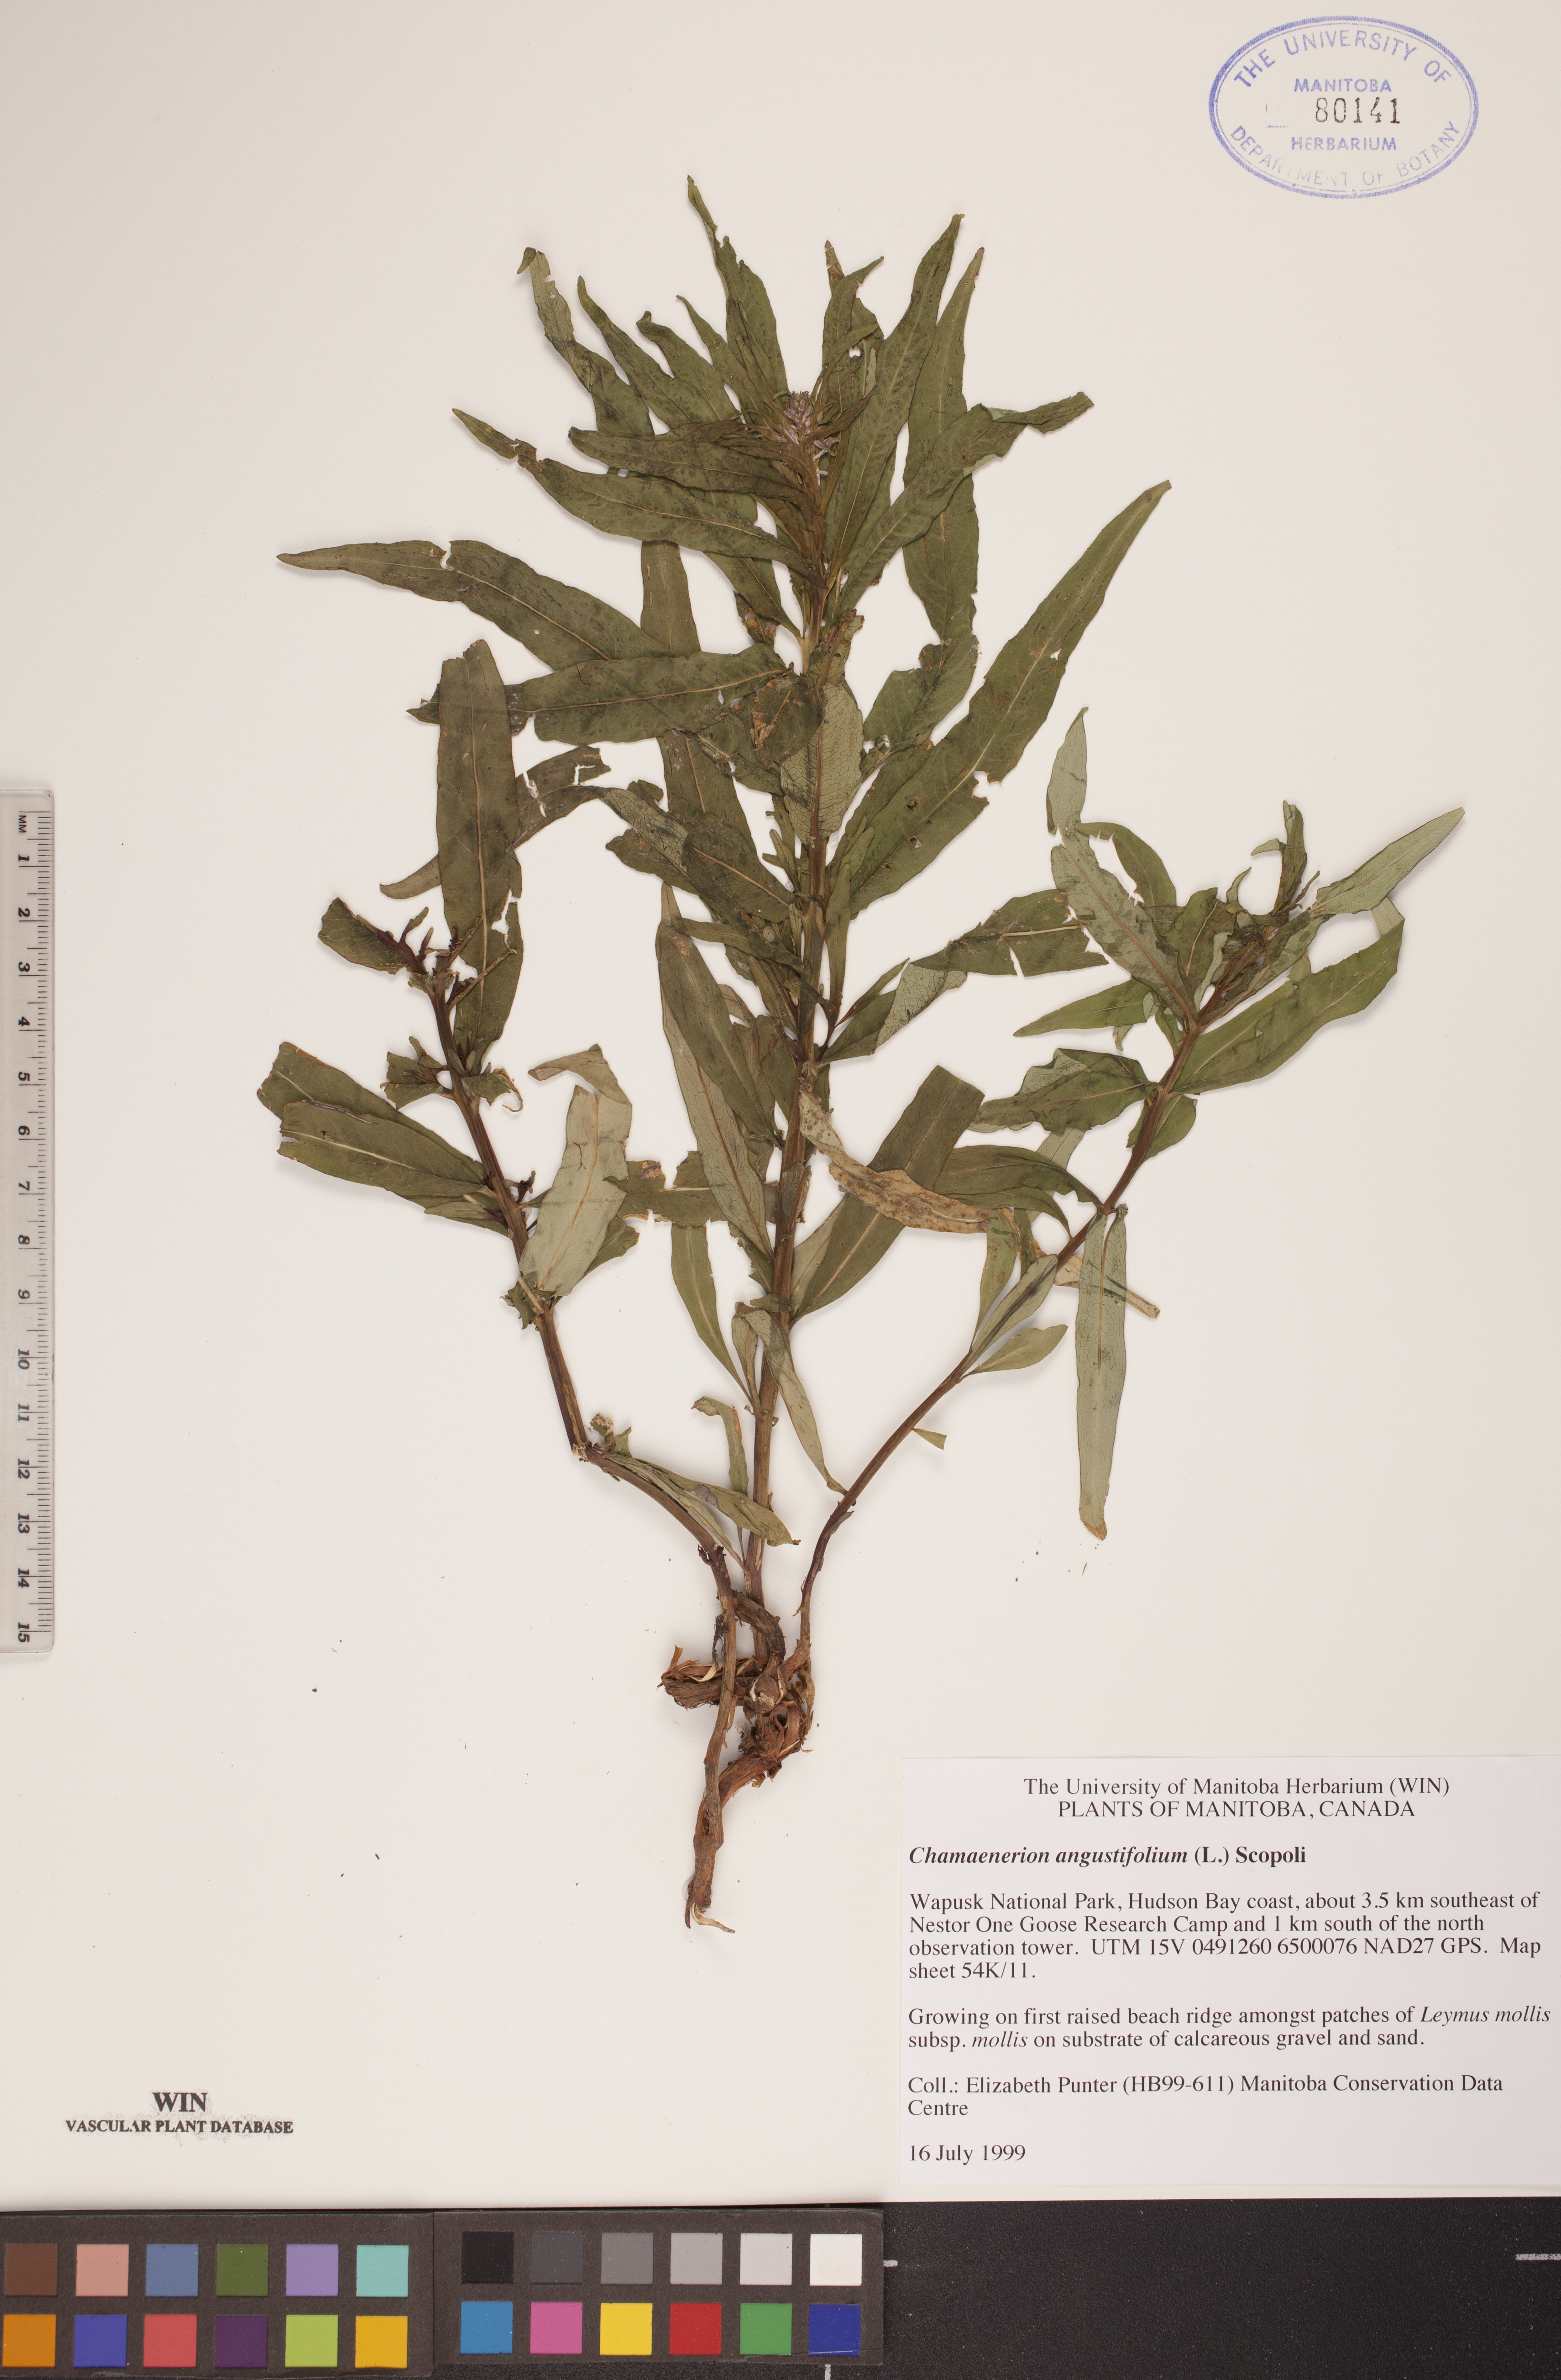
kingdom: Plantae
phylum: Tracheophyta
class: Magnoliopsida
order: Myrtales
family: Onagraceae
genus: Chamaenerion
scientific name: Chamaenerion angustifolium
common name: Fireweed
